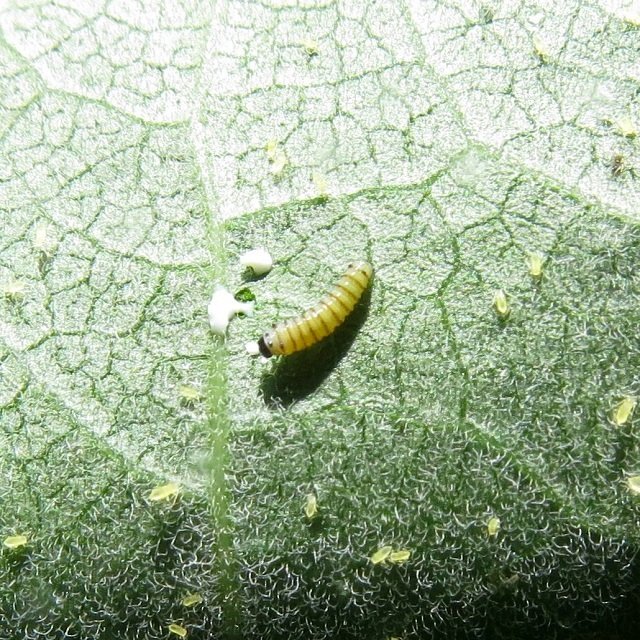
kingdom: Animalia
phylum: Arthropoda
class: Insecta
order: Lepidoptera
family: Nymphalidae
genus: Danaus
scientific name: Danaus plexippus
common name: Monarch
